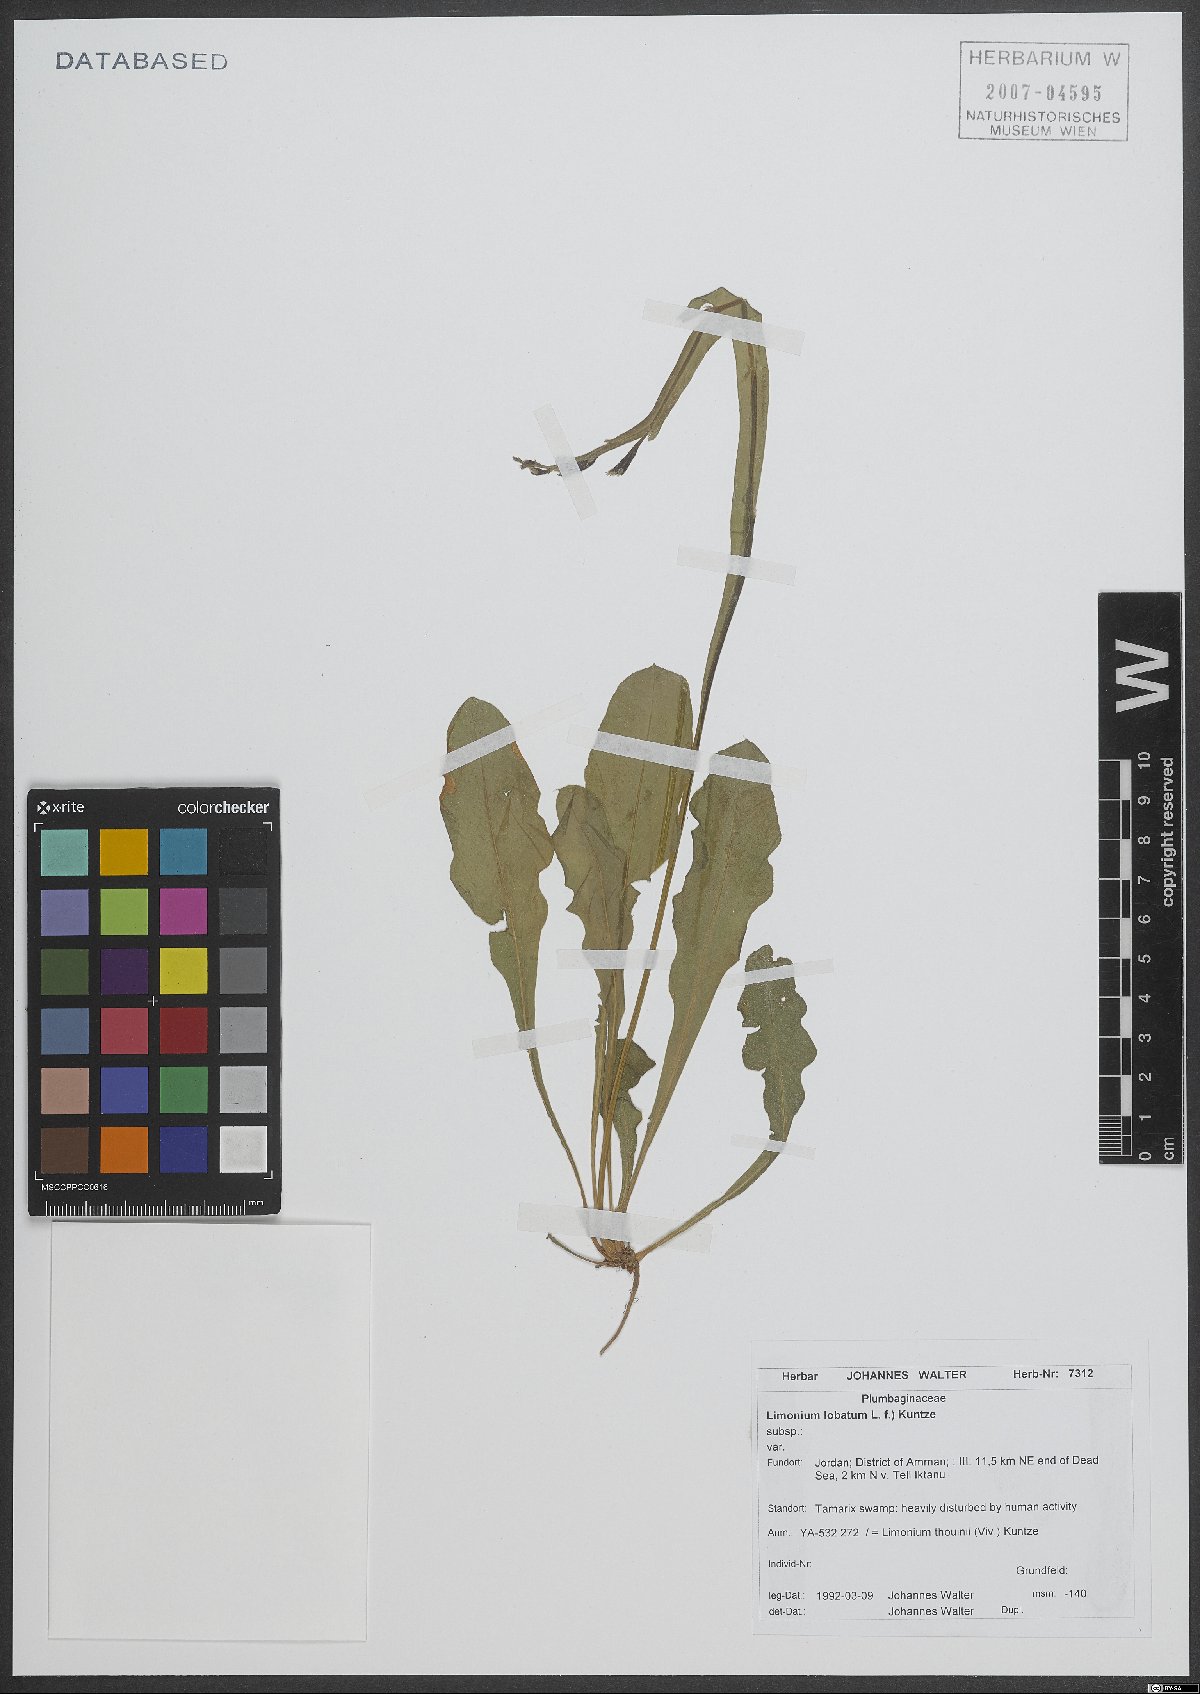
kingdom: Plantae
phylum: Tracheophyta
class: Magnoliopsida
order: Caryophyllales
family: Plumbaginaceae
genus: Limonium
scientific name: Limonium lobatum
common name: Winged sea-lavender
